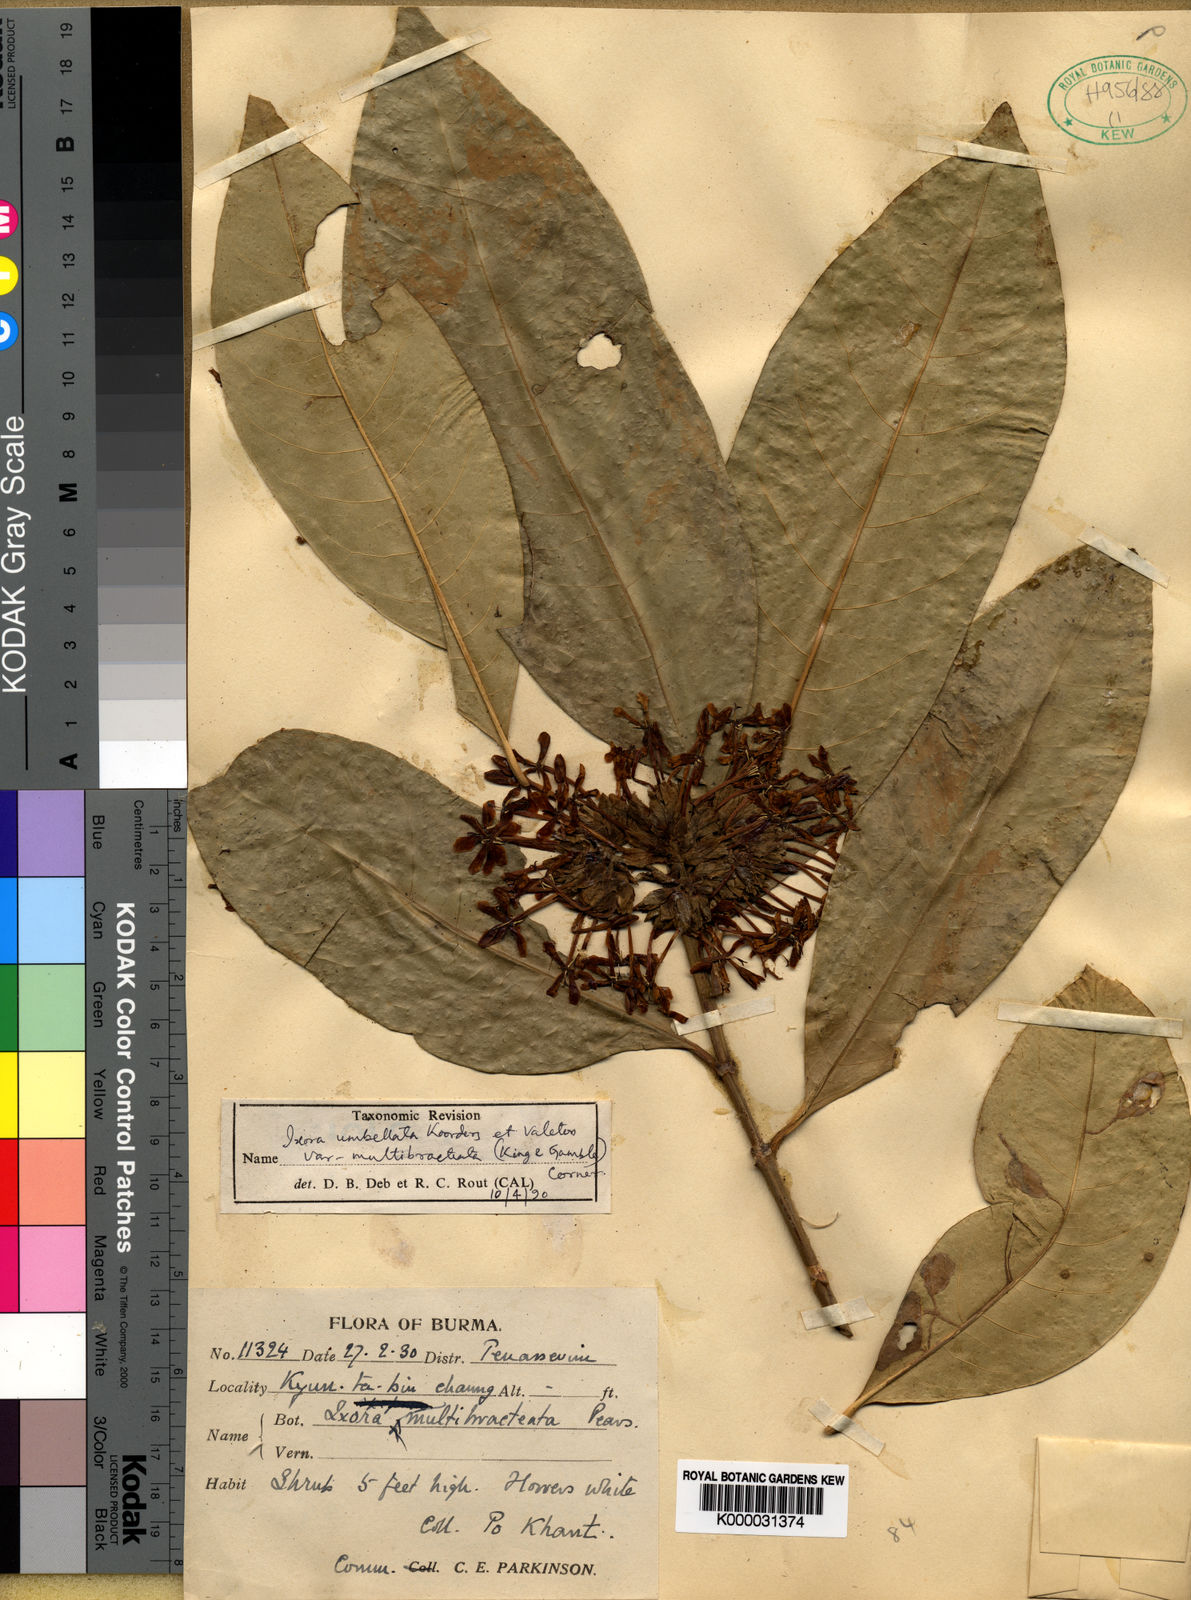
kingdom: Plantae
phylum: Tracheophyta
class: Magnoliopsida
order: Gentianales
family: Rubiaceae
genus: Ixora
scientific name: Ixora
